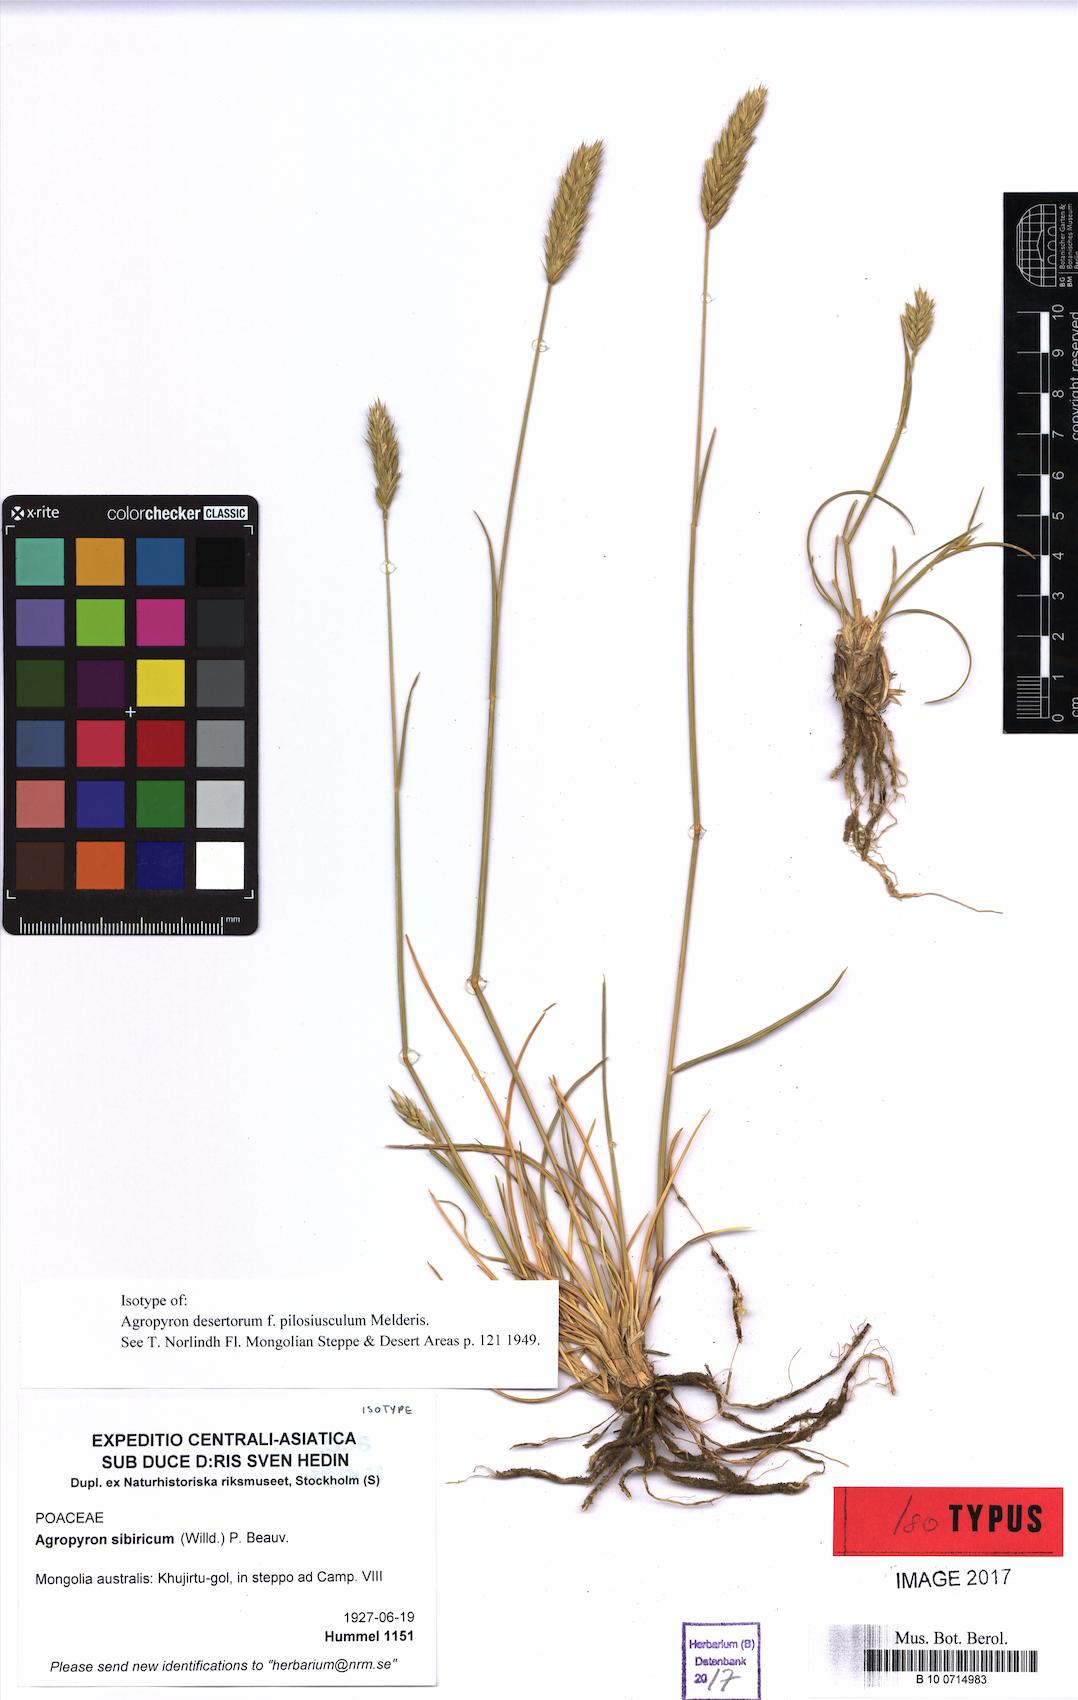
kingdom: Plantae
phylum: Tracheophyta
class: Liliopsida
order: Poales
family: Poaceae
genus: Agropyron
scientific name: Agropyron fragile
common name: Siberian wheatgrass
